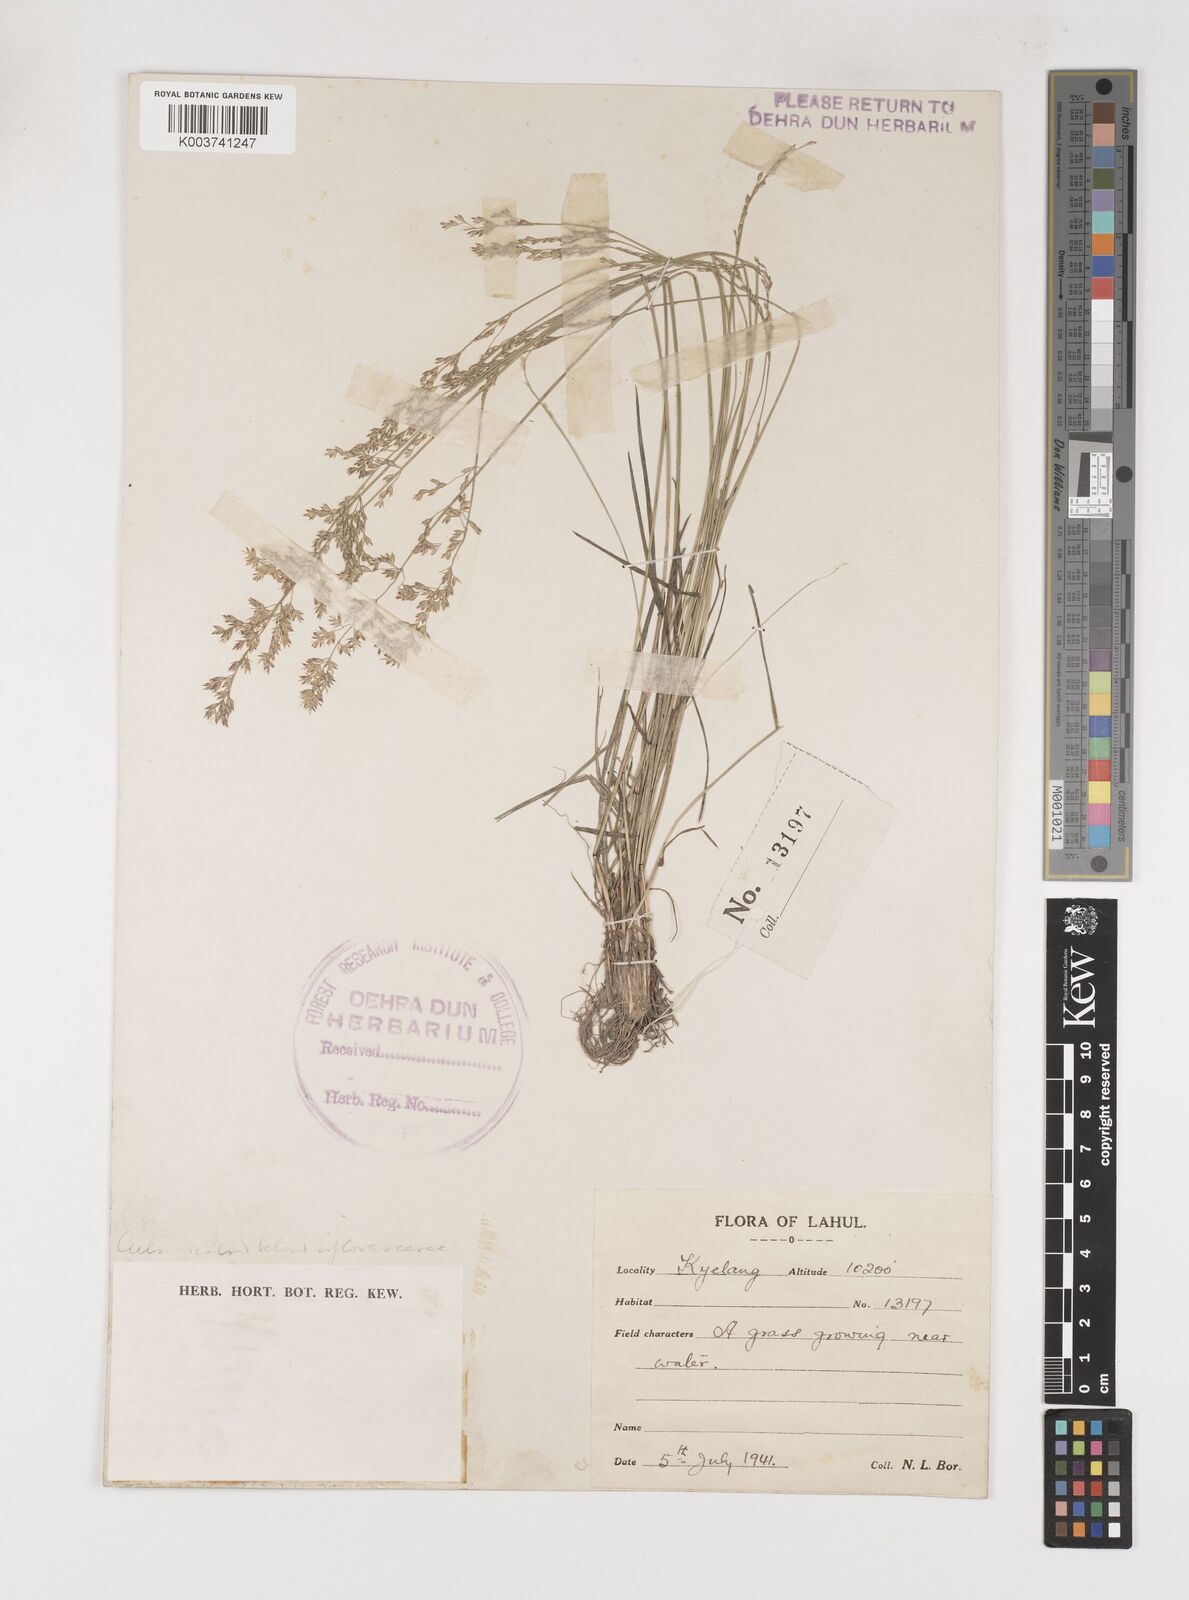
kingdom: Plantae
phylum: Tracheophyta
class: Liliopsida
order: Poales
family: Poaceae
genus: Poa
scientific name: Poa
